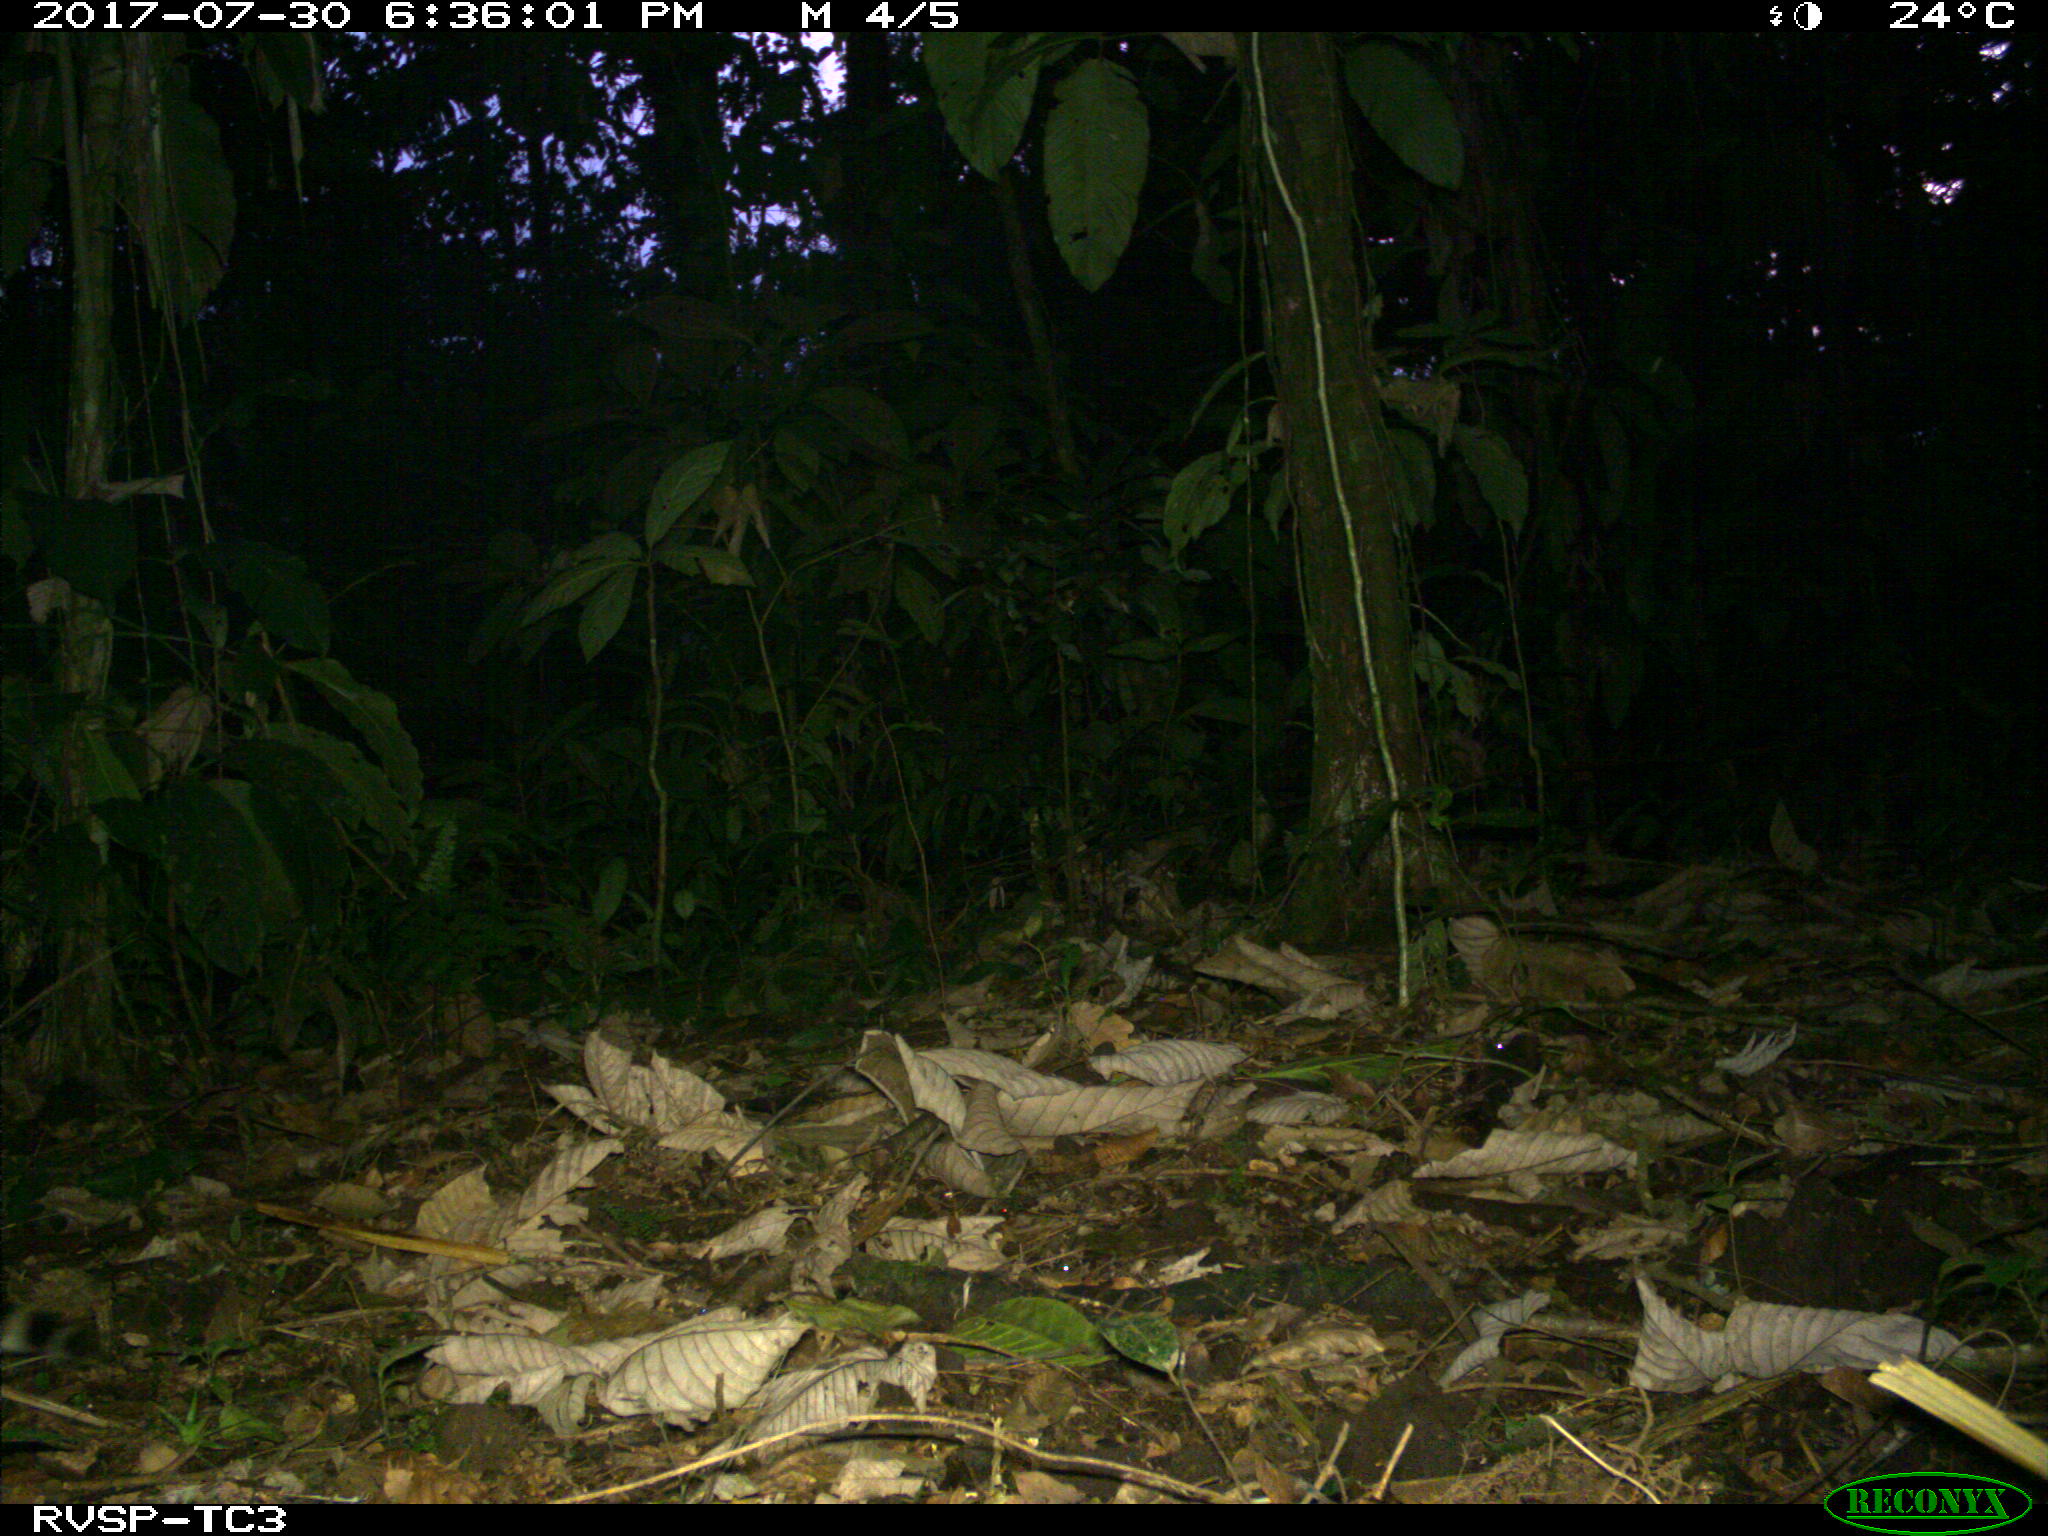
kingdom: Animalia
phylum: Chordata
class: Mammalia
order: Carnivora
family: Felidae
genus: Leopardus
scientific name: Leopardus pardalis
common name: Ocelot
